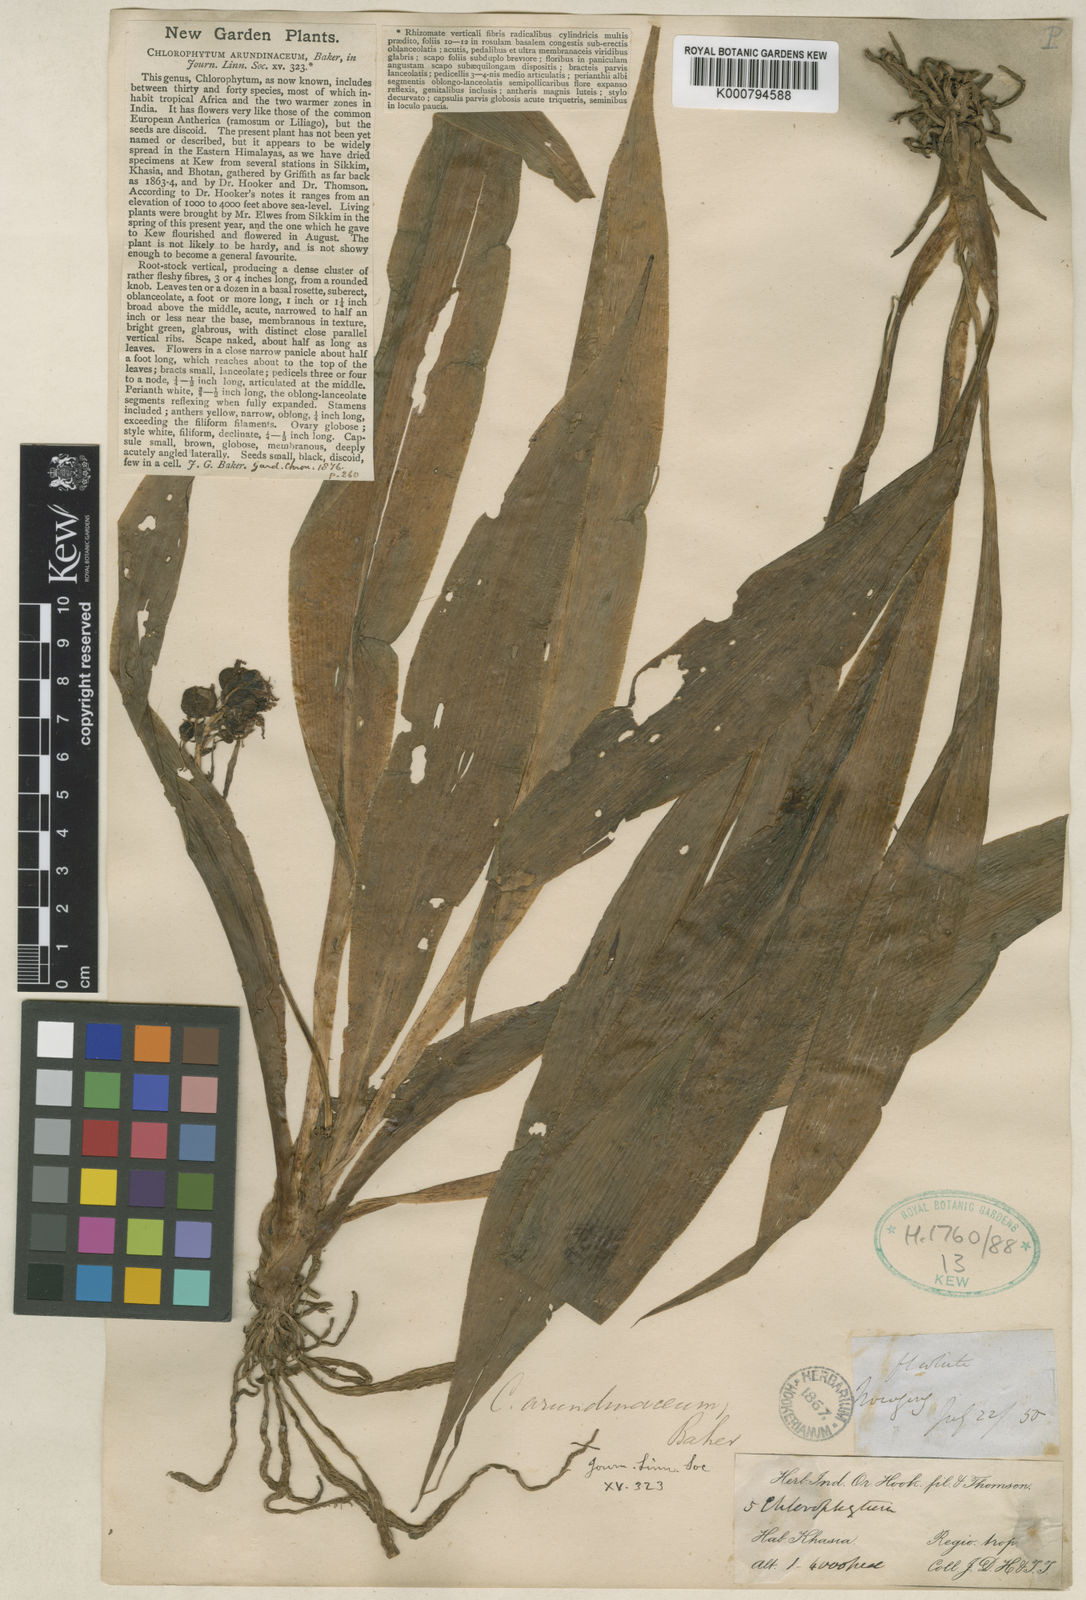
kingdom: Plantae
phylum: Tracheophyta
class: Liliopsida
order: Asparagales
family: Asparagaceae
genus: Chlorophytum
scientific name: Chlorophytum arundinaceum
